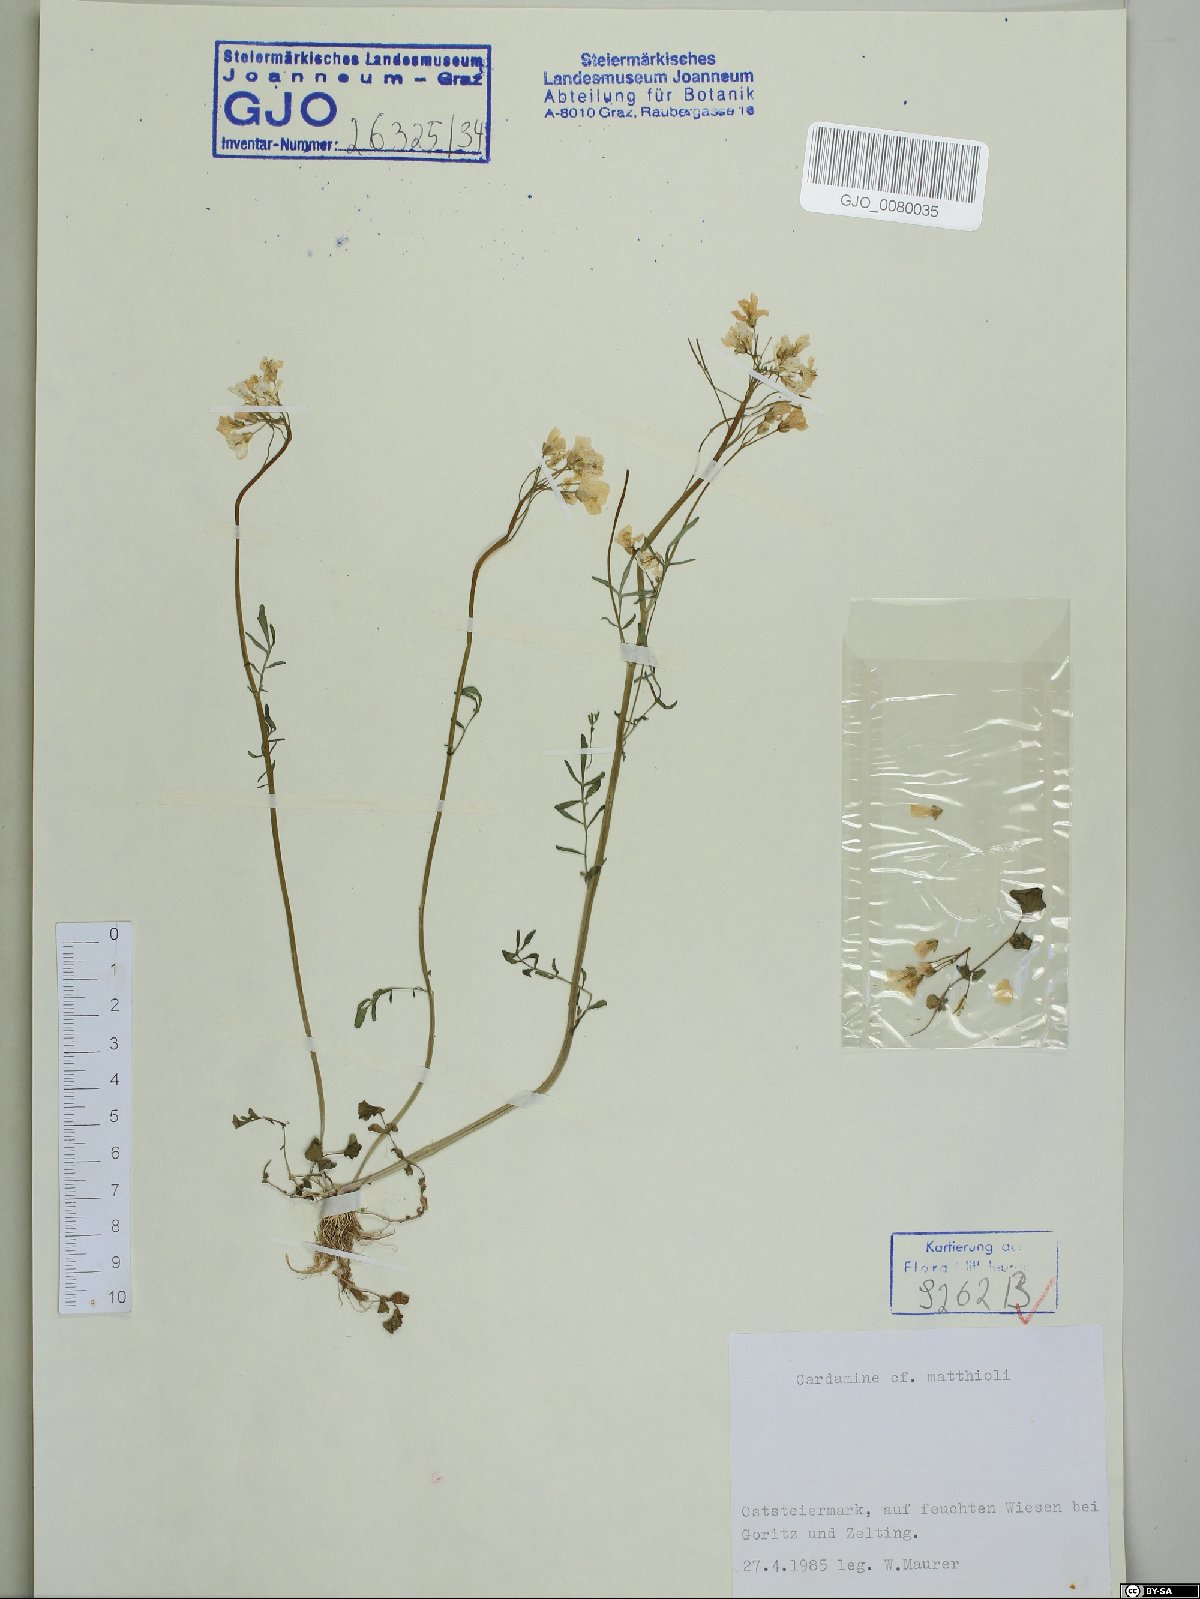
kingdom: Plantae
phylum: Tracheophyta
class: Magnoliopsida
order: Brassicales
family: Brassicaceae
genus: Cardamine
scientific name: Cardamine matthioli
